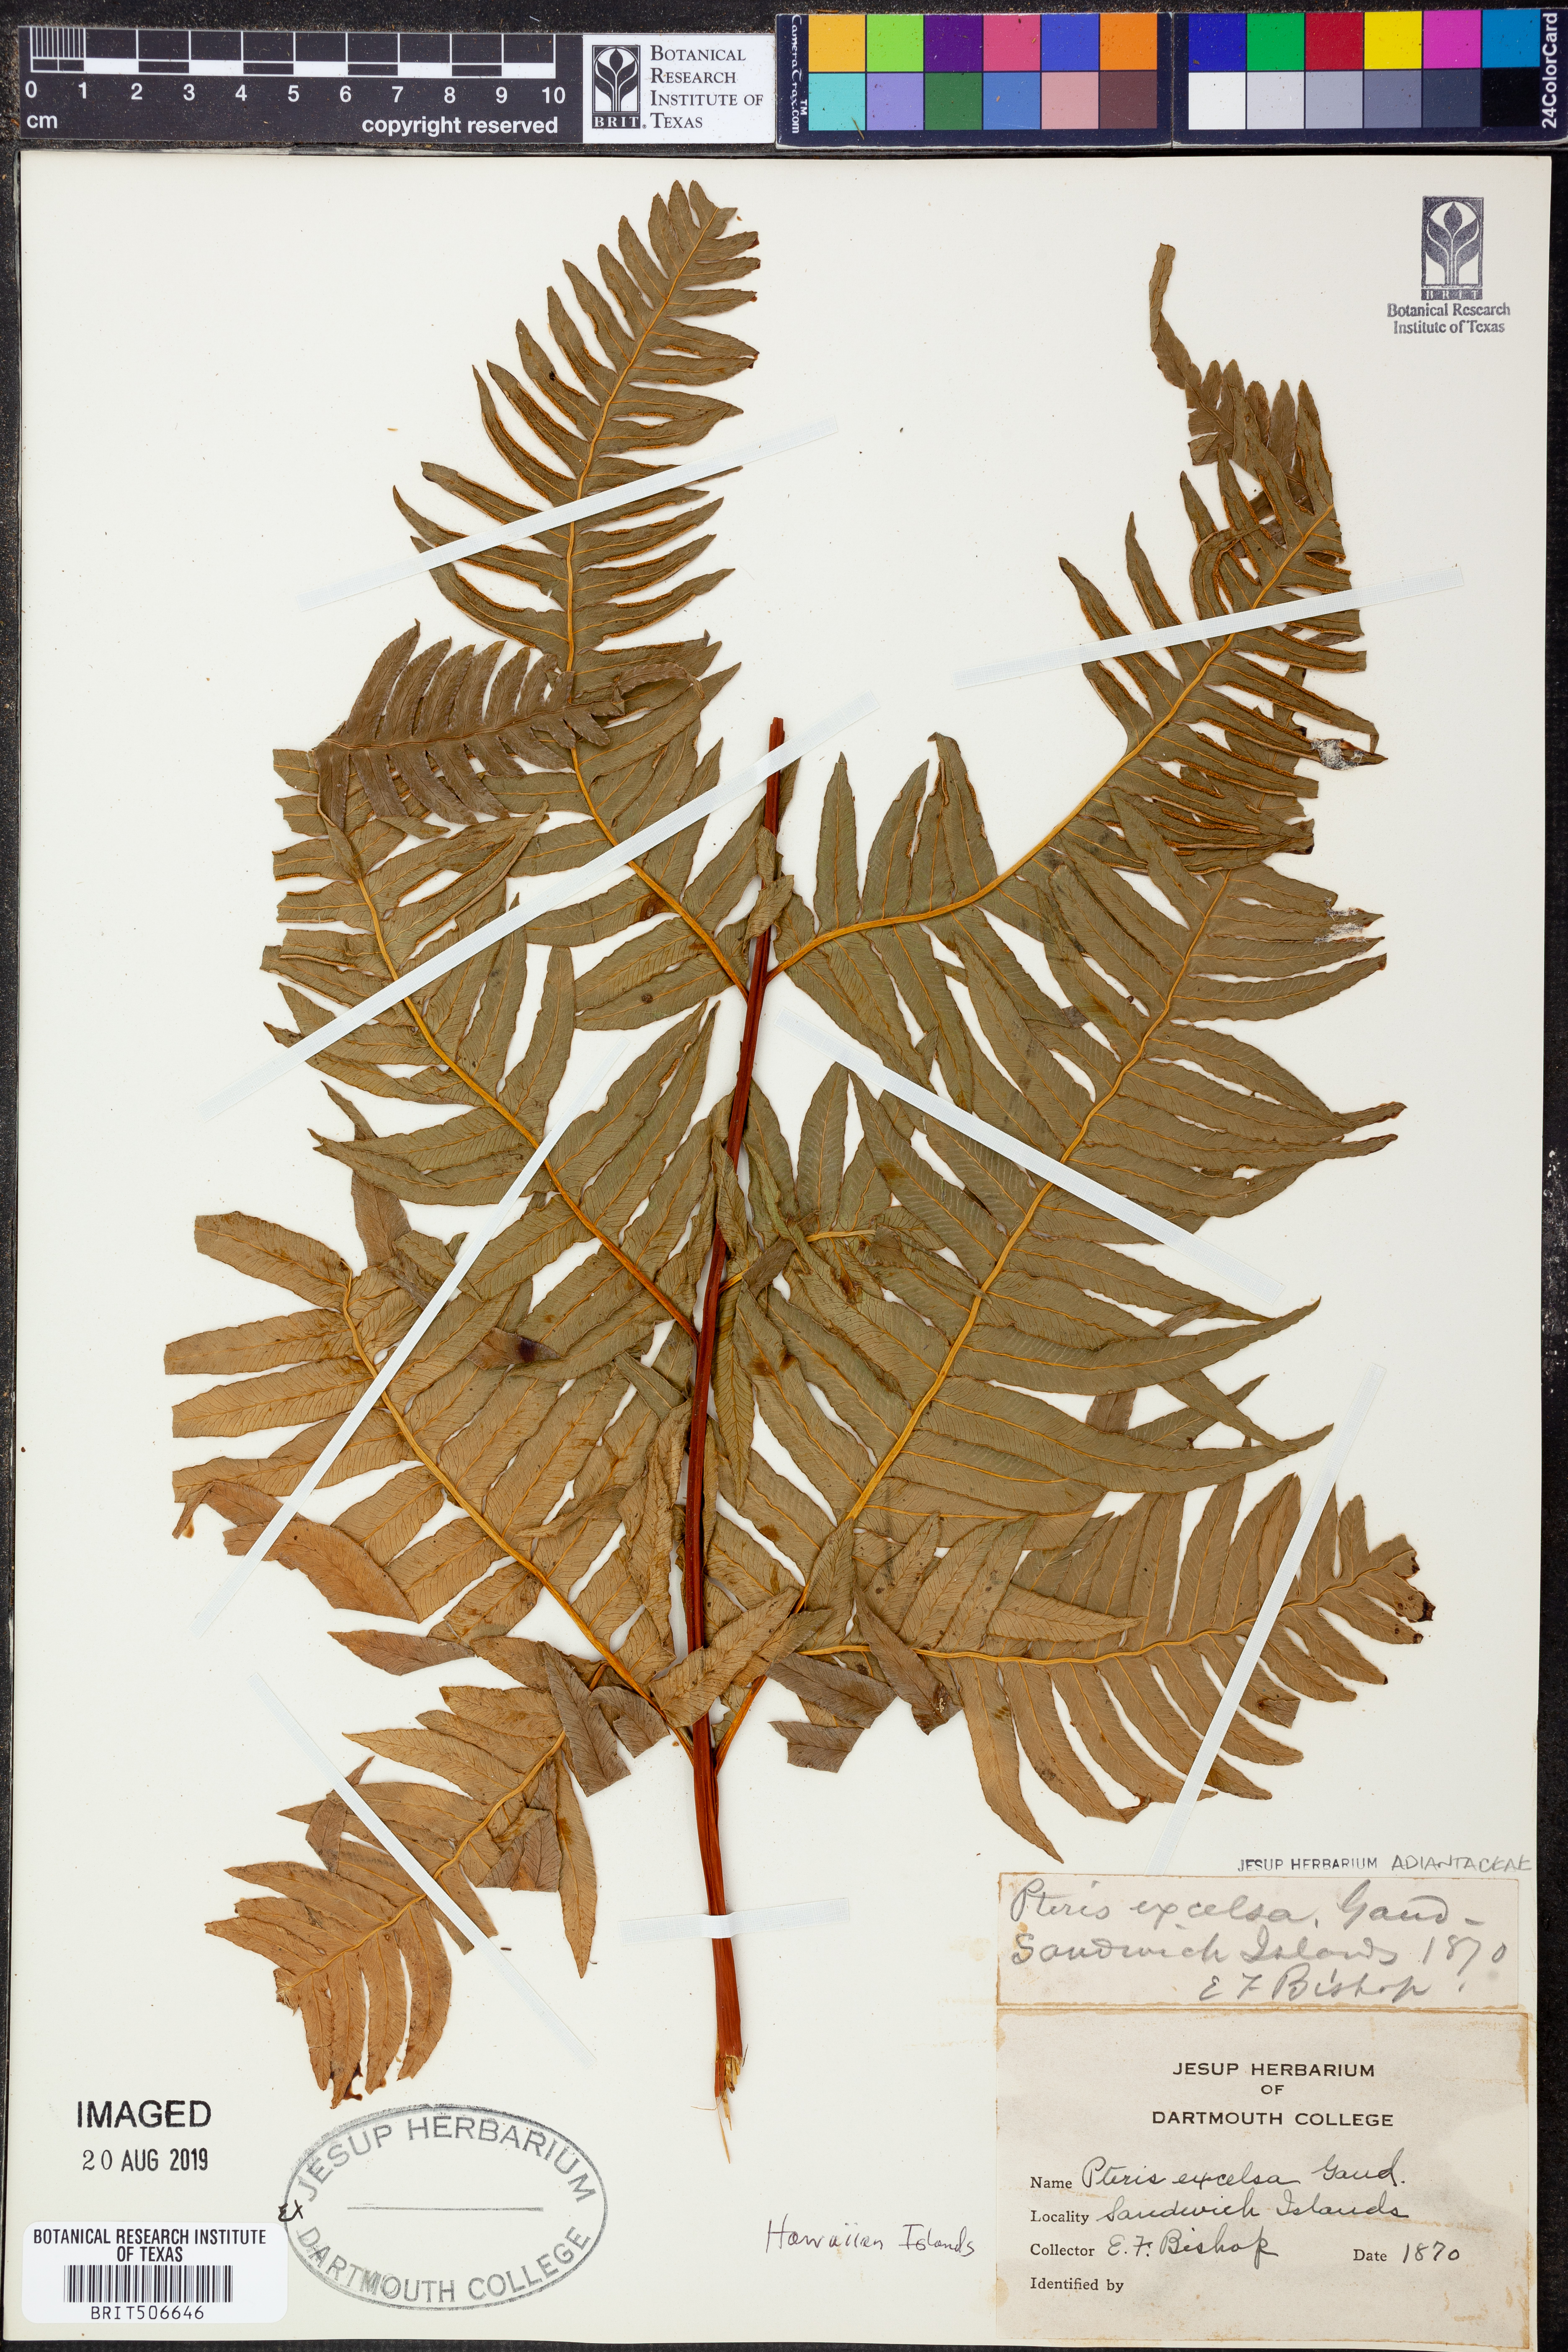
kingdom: Plantae
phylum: Tracheophyta
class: Polypodiopsida
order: Polypodiales
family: Pteridaceae
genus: Pteris
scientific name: Pteris terminalis
